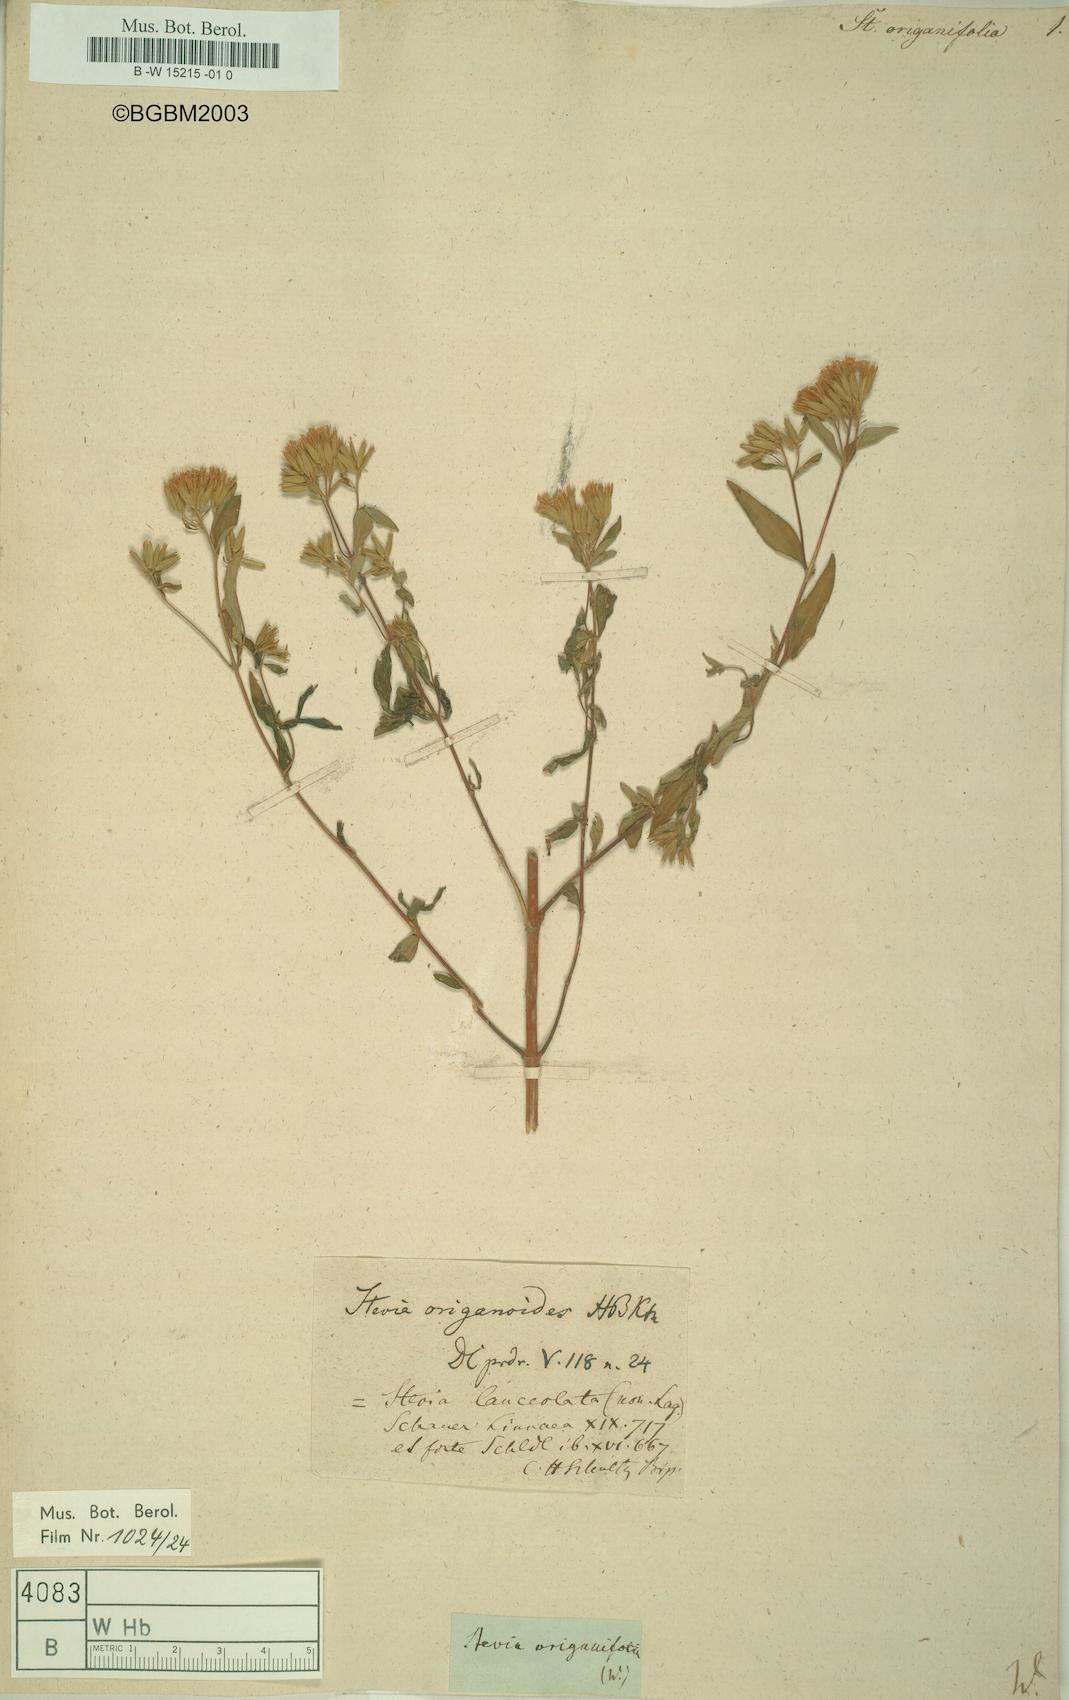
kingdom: Plantae
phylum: Tracheophyta
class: Magnoliopsida
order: Asterales
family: Asteraceae
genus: Stevia
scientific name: Stevia jorullensis
